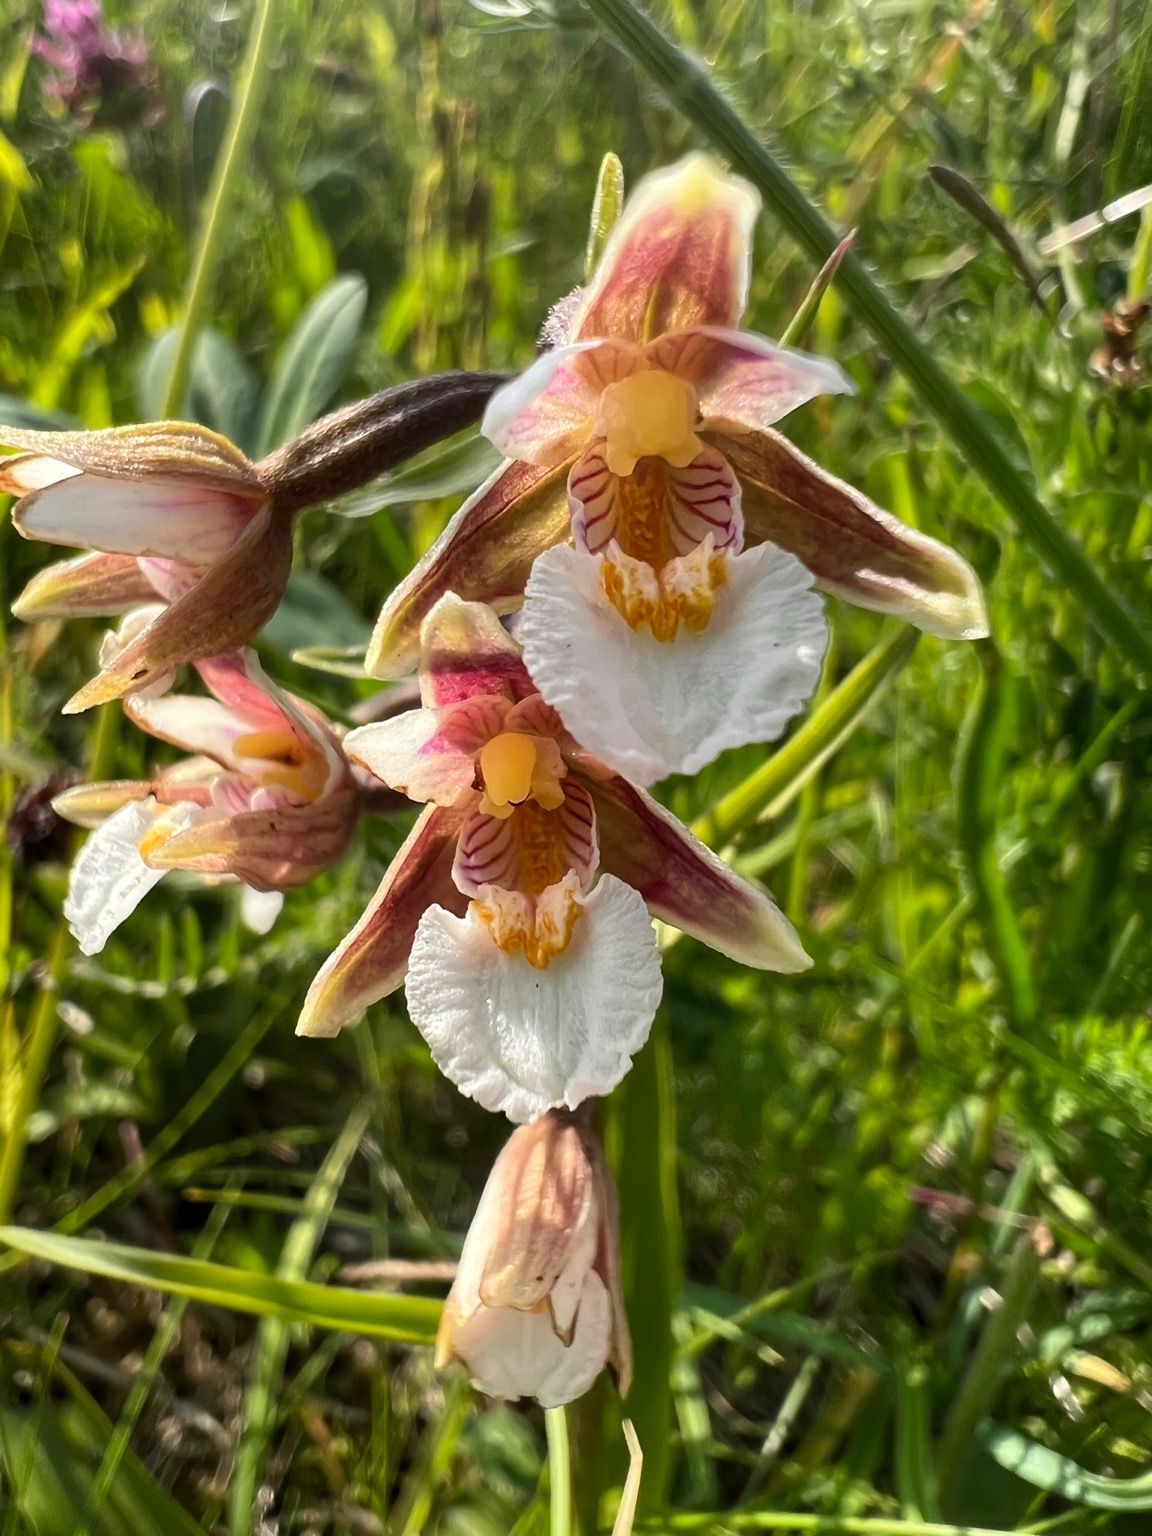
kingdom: Plantae
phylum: Tracheophyta
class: Liliopsida
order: Asparagales
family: Orchidaceae
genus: Epipactis
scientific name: Epipactis palustris
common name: Sump-hullæbe
